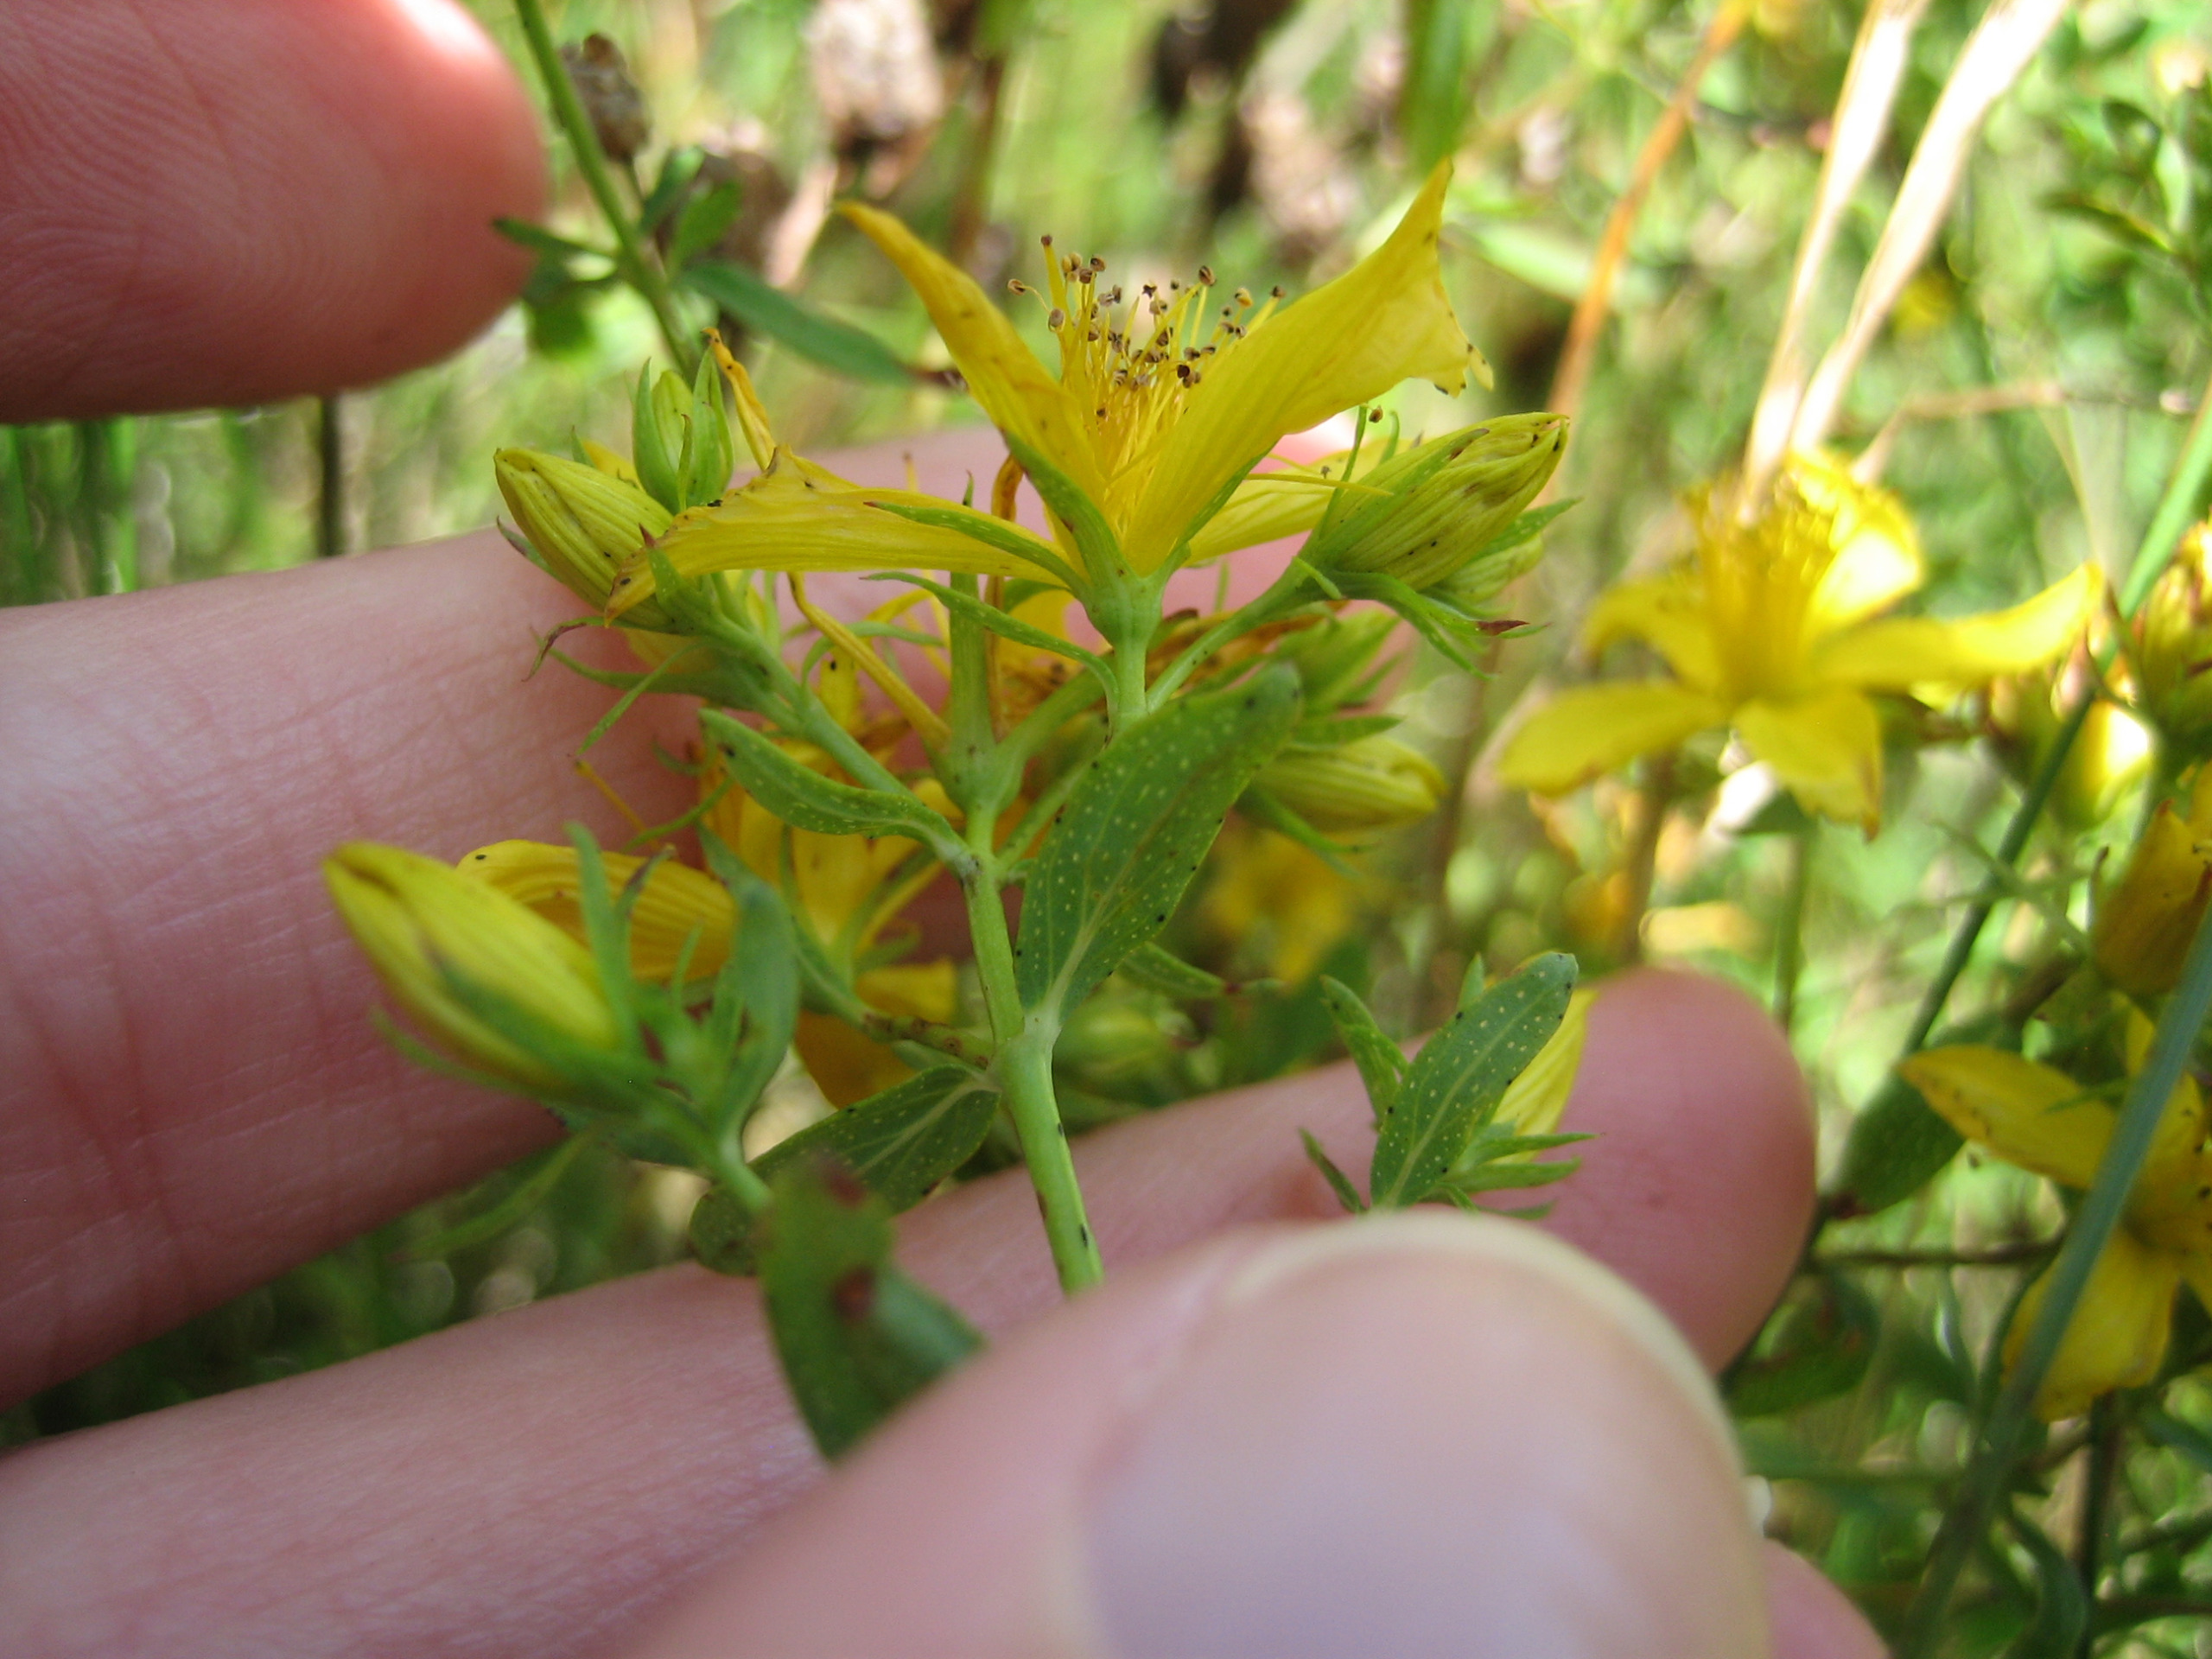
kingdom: Plantae
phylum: Tracheophyta
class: Magnoliopsida
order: Malpighiales
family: Hypericaceae
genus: Hypericum
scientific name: Hypericum perforatum
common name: Prikbladet perikon
